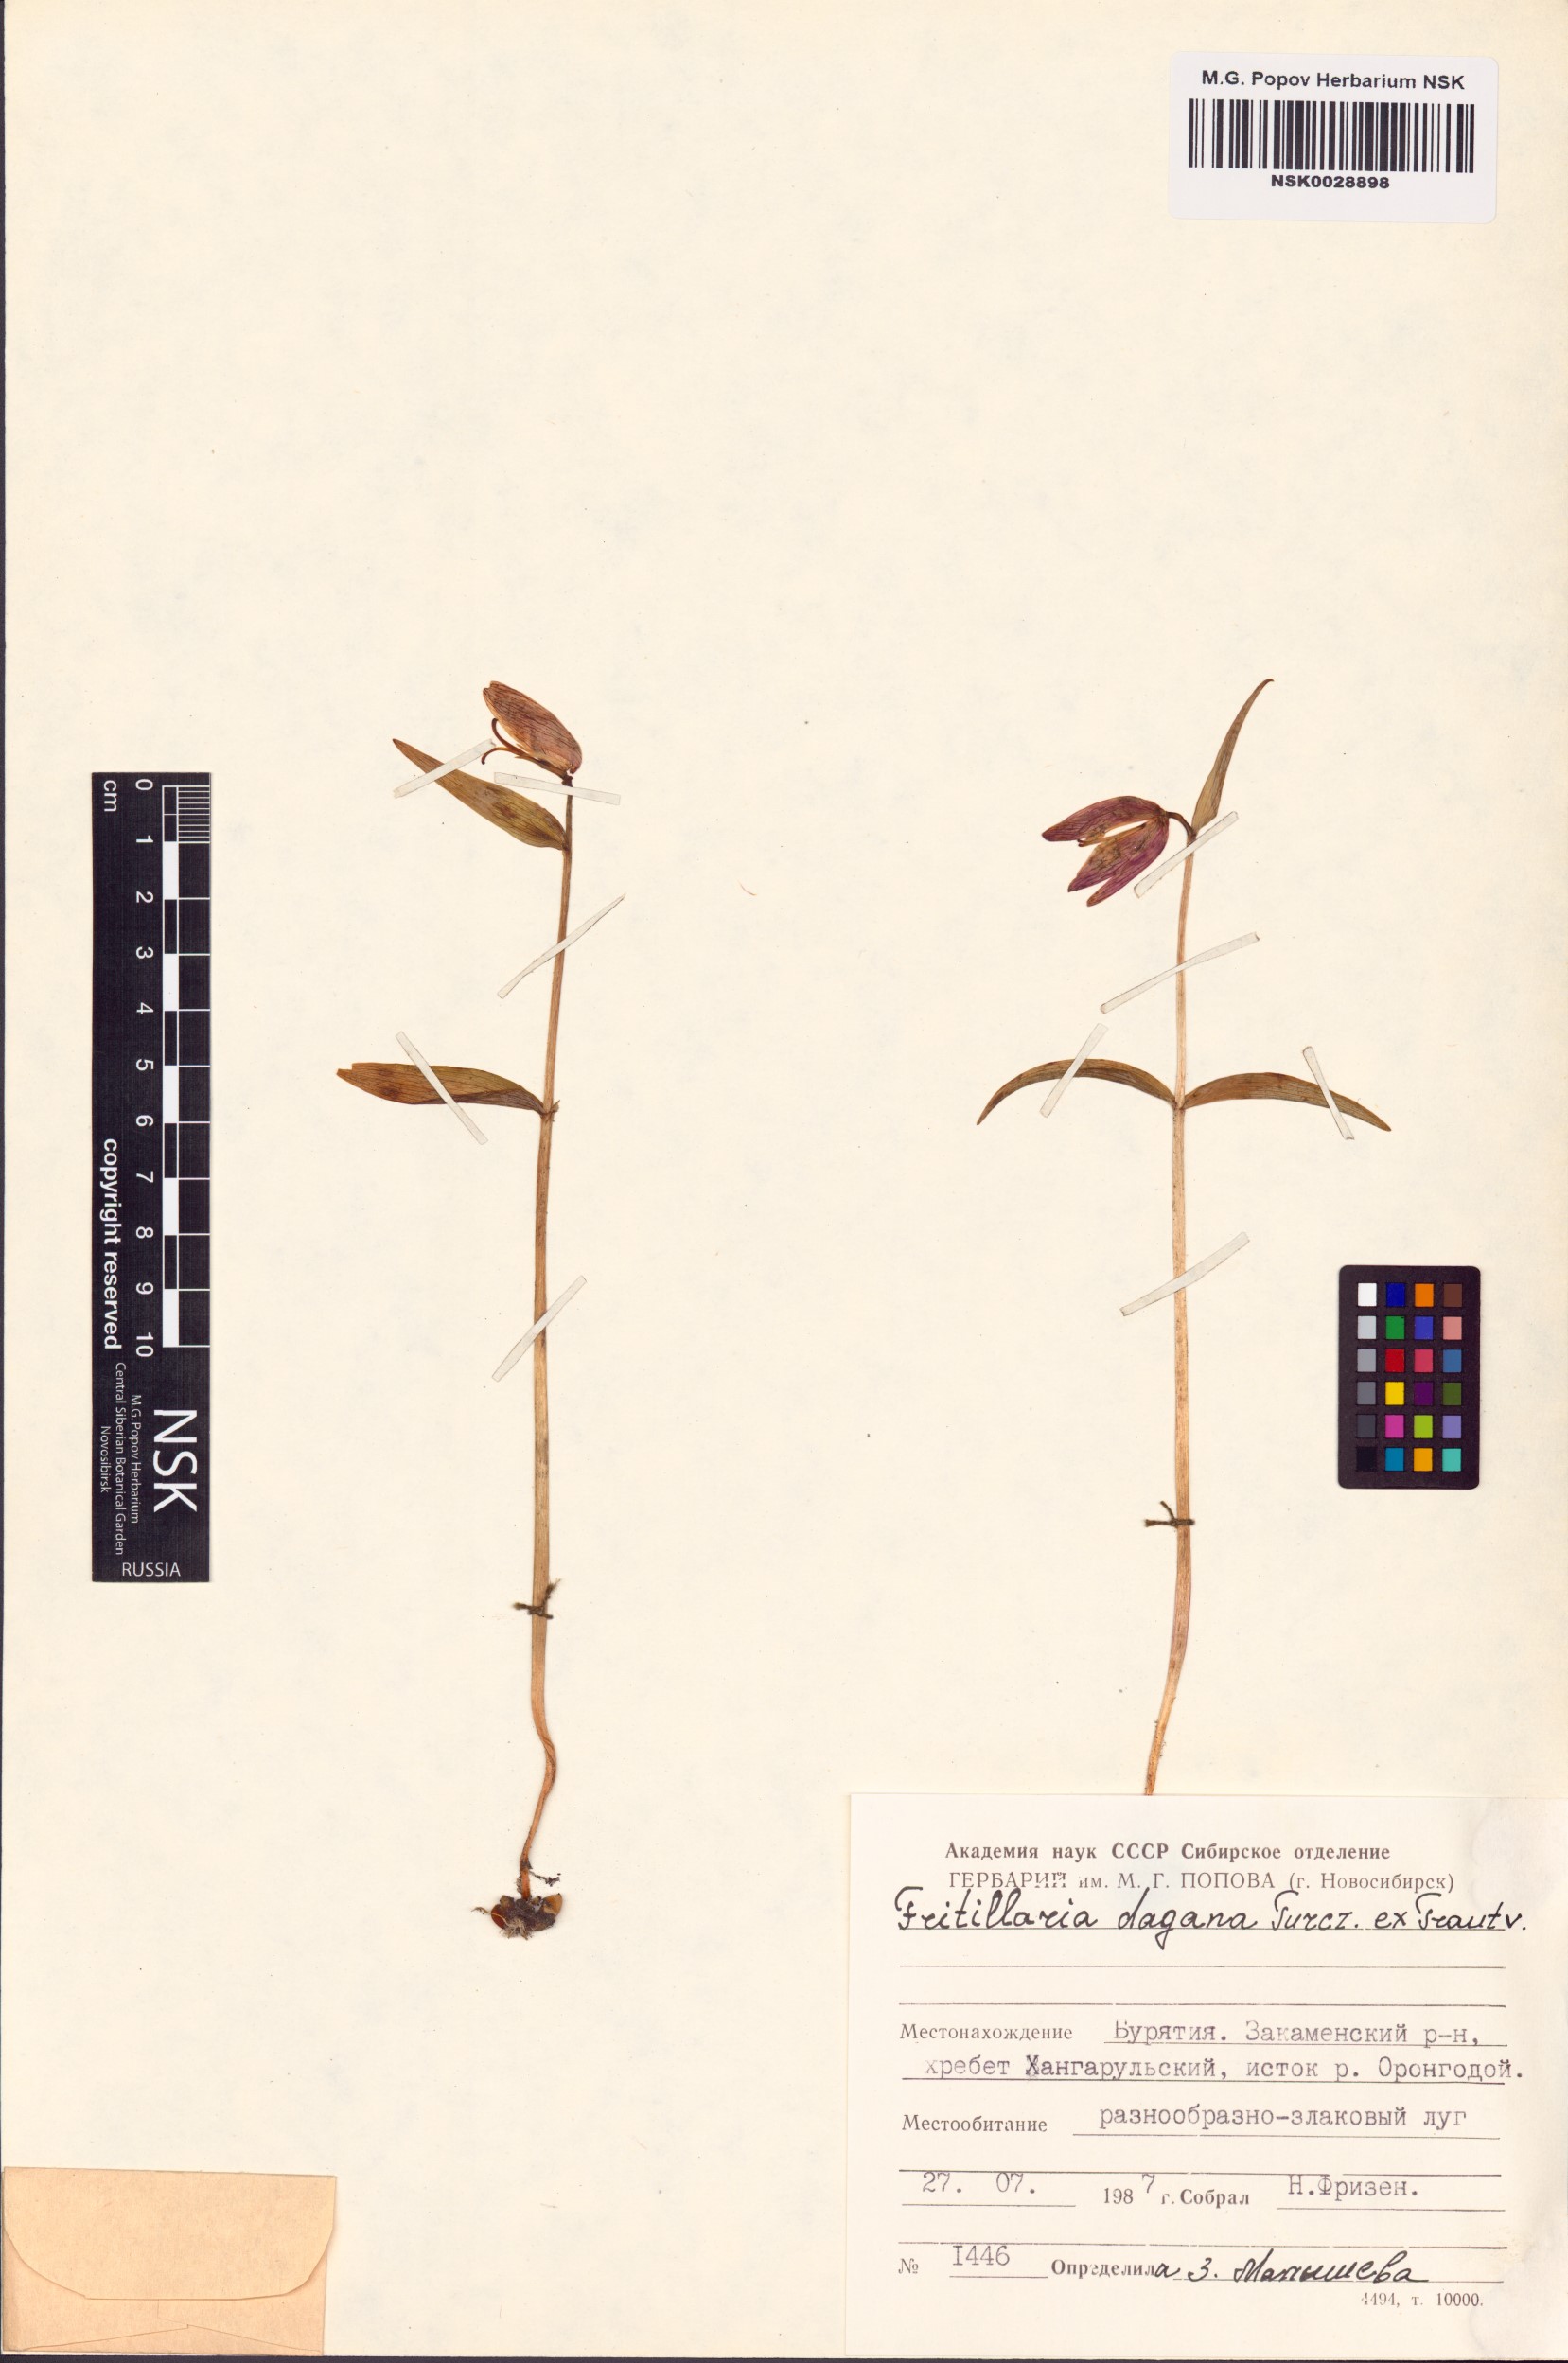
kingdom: Plantae
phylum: Tracheophyta
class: Liliopsida
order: Liliales
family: Liliaceae
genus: Fritillaria
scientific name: Fritillaria dagana
